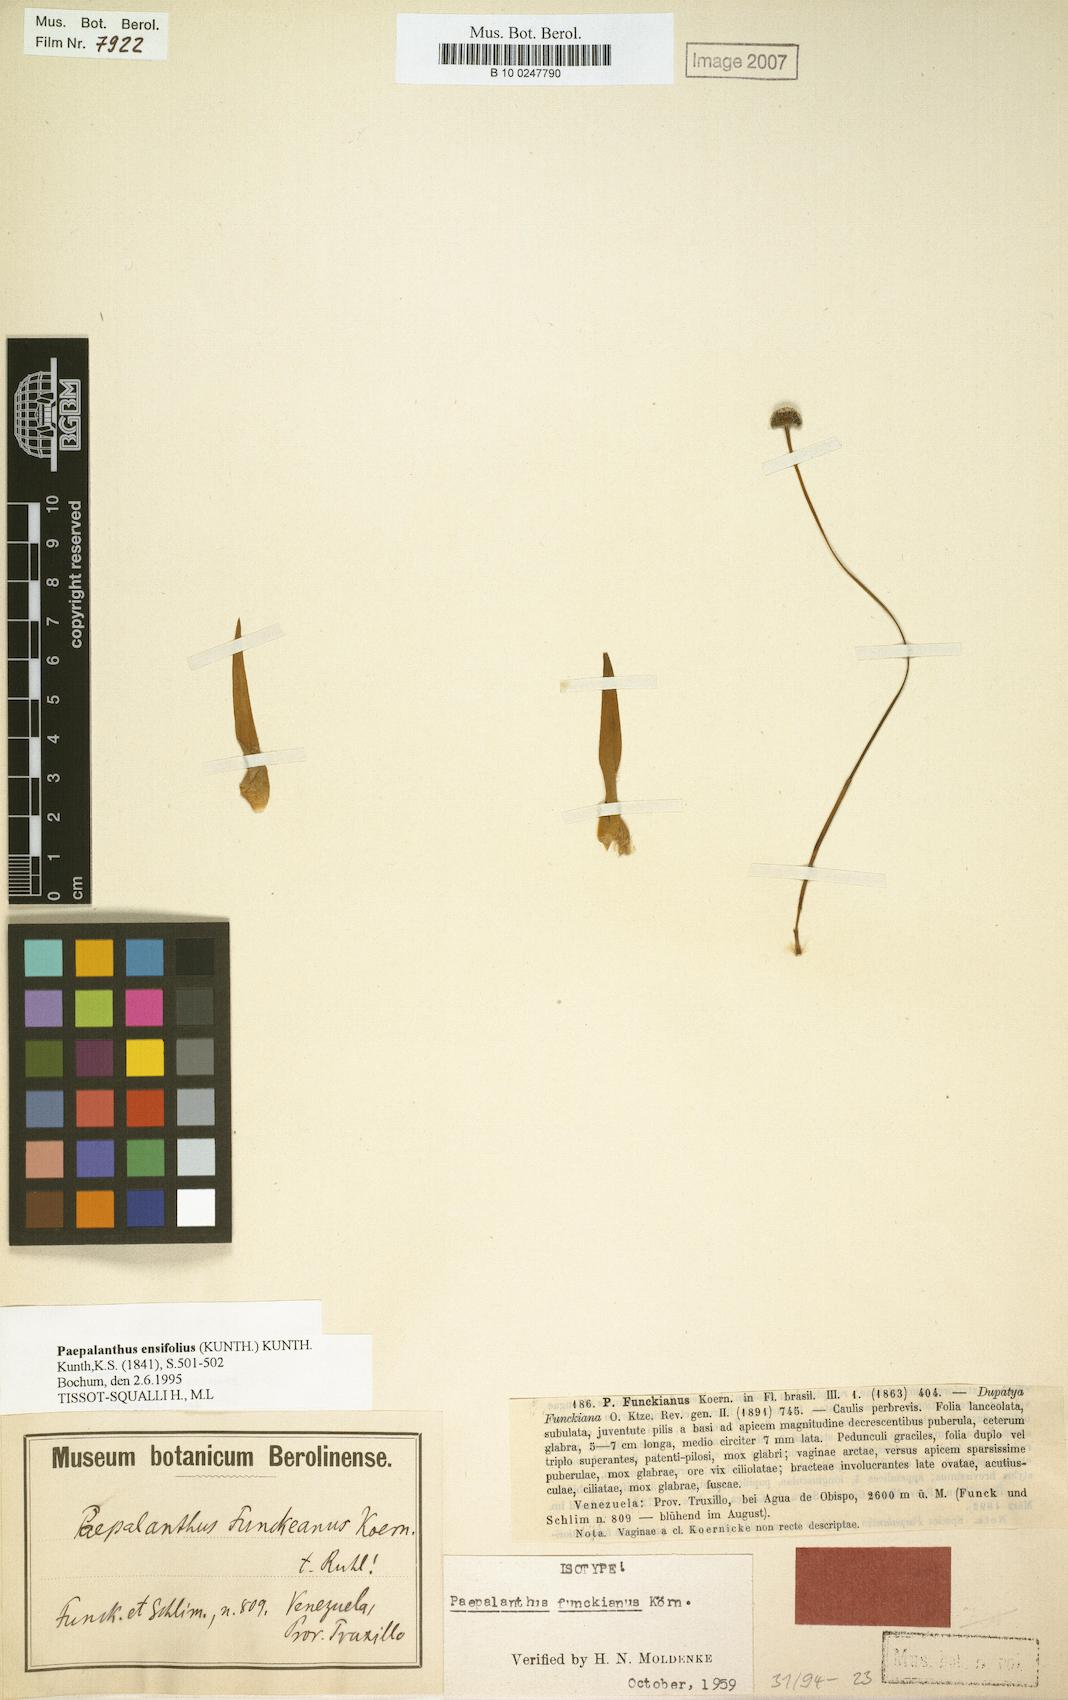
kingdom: Plantae
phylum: Tracheophyta
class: Liliopsida
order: Poales
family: Eriocaulaceae
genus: Paepalanthus
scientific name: Paepalanthus ensifolius
